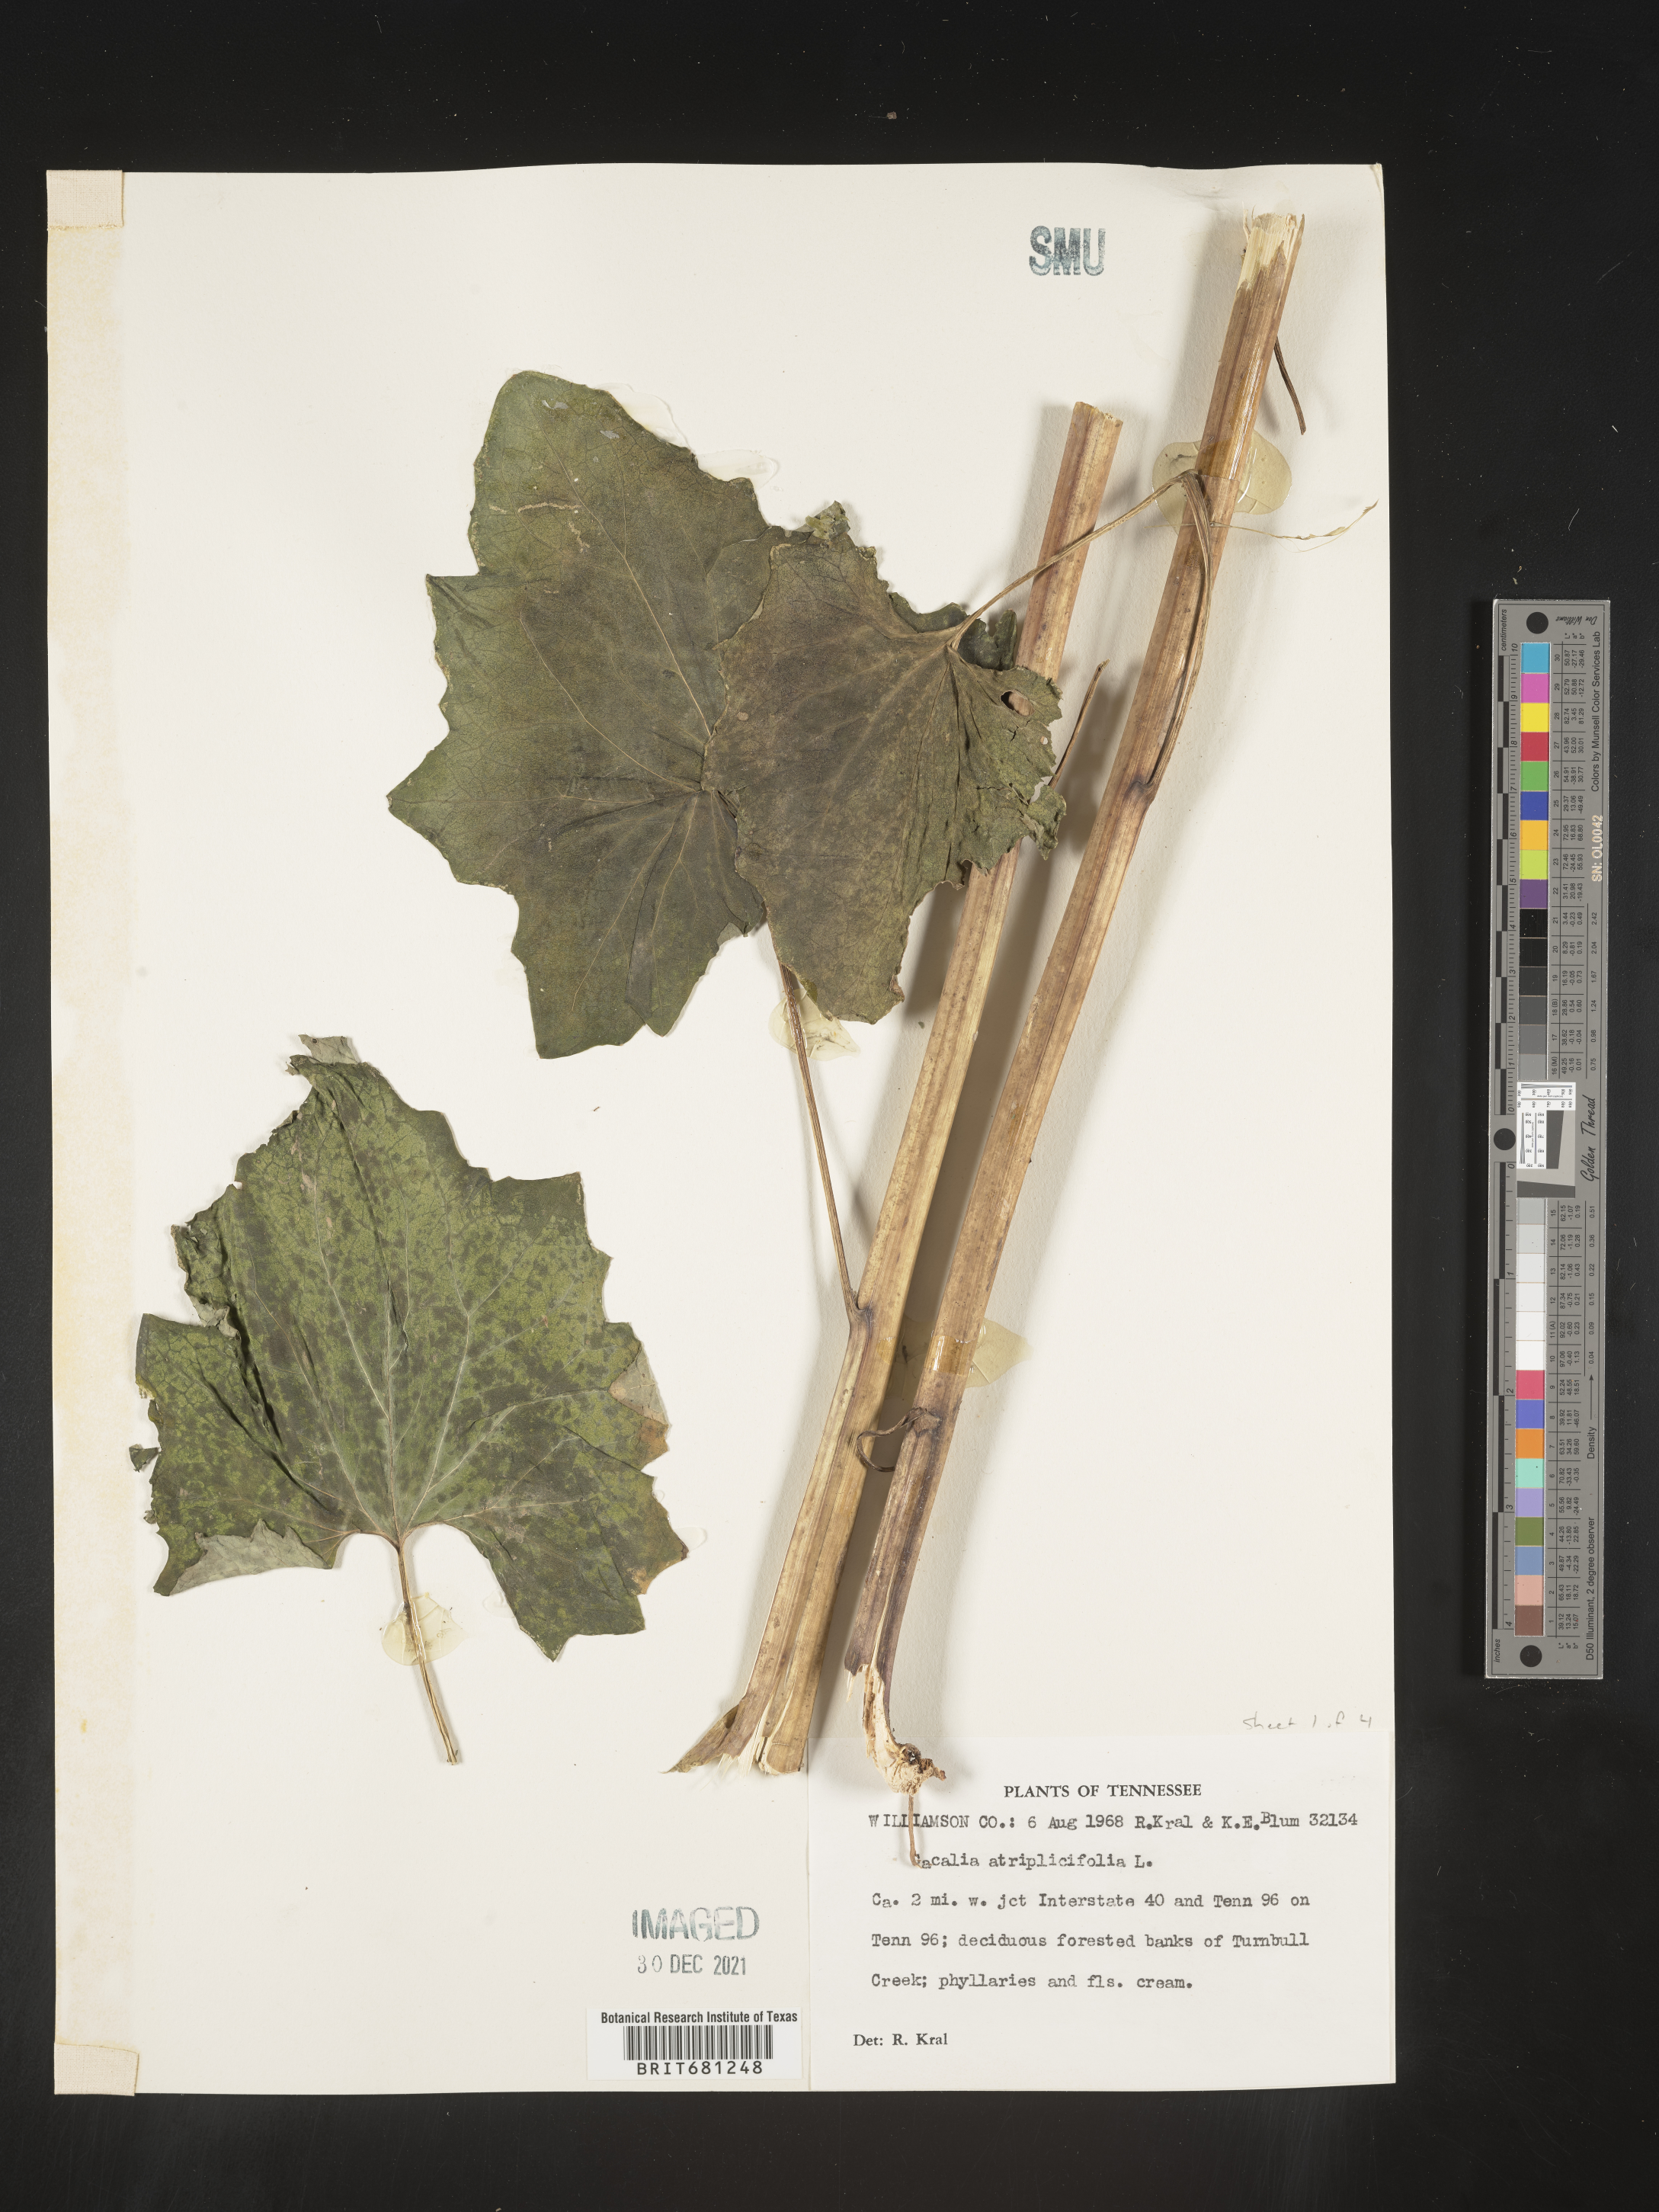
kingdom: Plantae
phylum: Tracheophyta
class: Magnoliopsida
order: Asterales
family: Asteraceae
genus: Arnoglossum
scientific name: Arnoglossum atriplicifolium
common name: Pale indian-plantain
